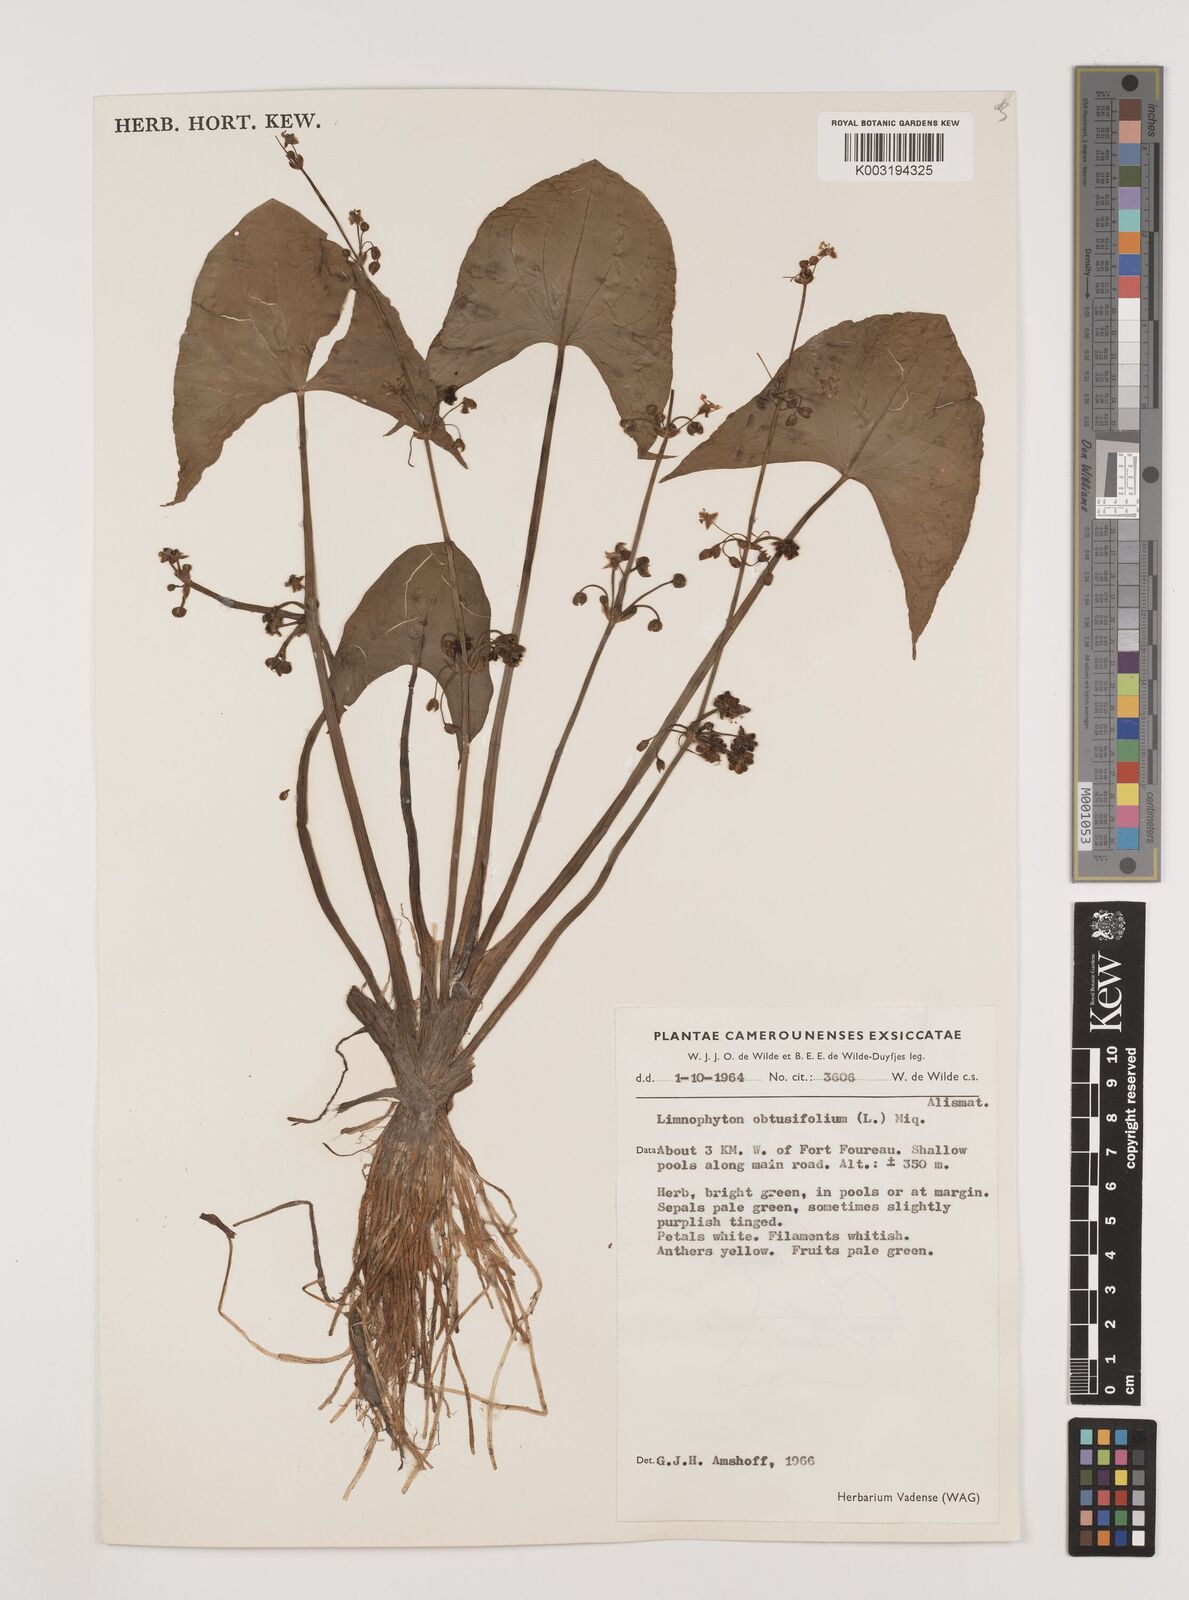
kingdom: Plantae
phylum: Tracheophyta
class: Liliopsida
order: Alismatales
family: Alismataceae
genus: Limnophyton
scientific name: Limnophyton obtusifolium
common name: Arrow head
